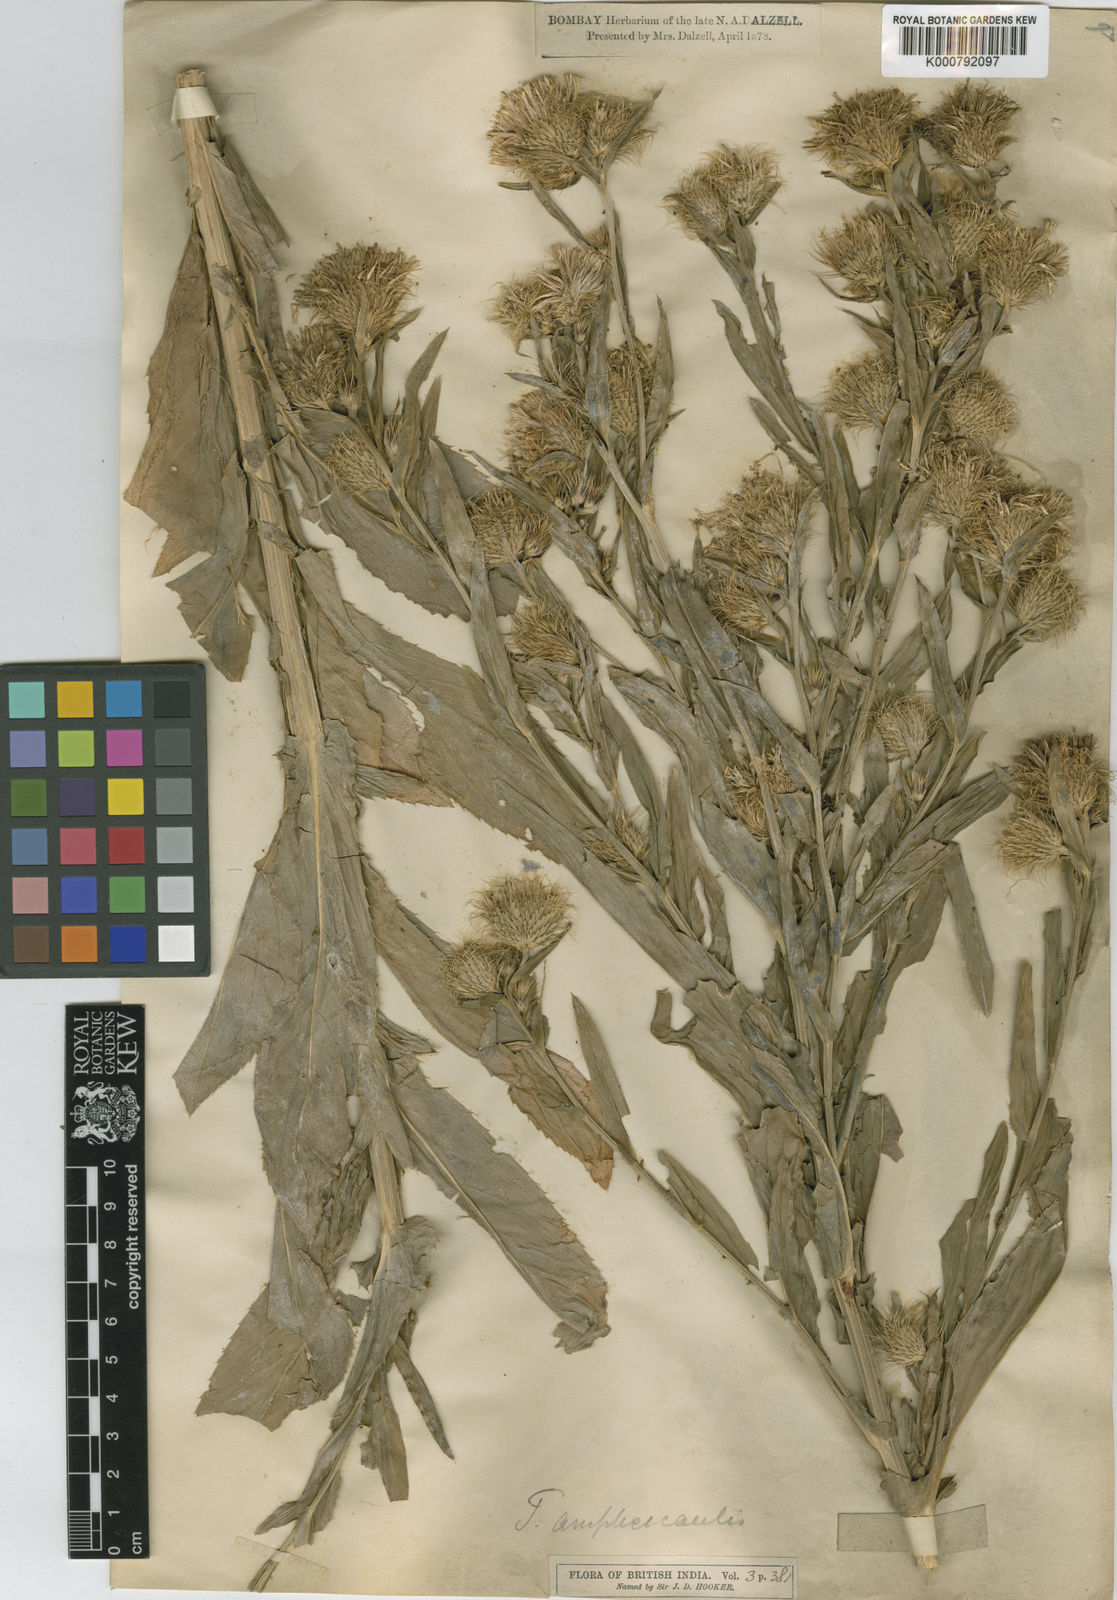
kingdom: Plantae
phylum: Tracheophyta
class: Magnoliopsida
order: Asterales
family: Asteraceae
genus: Tricholepis
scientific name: Tricholepis amplexicaulis
